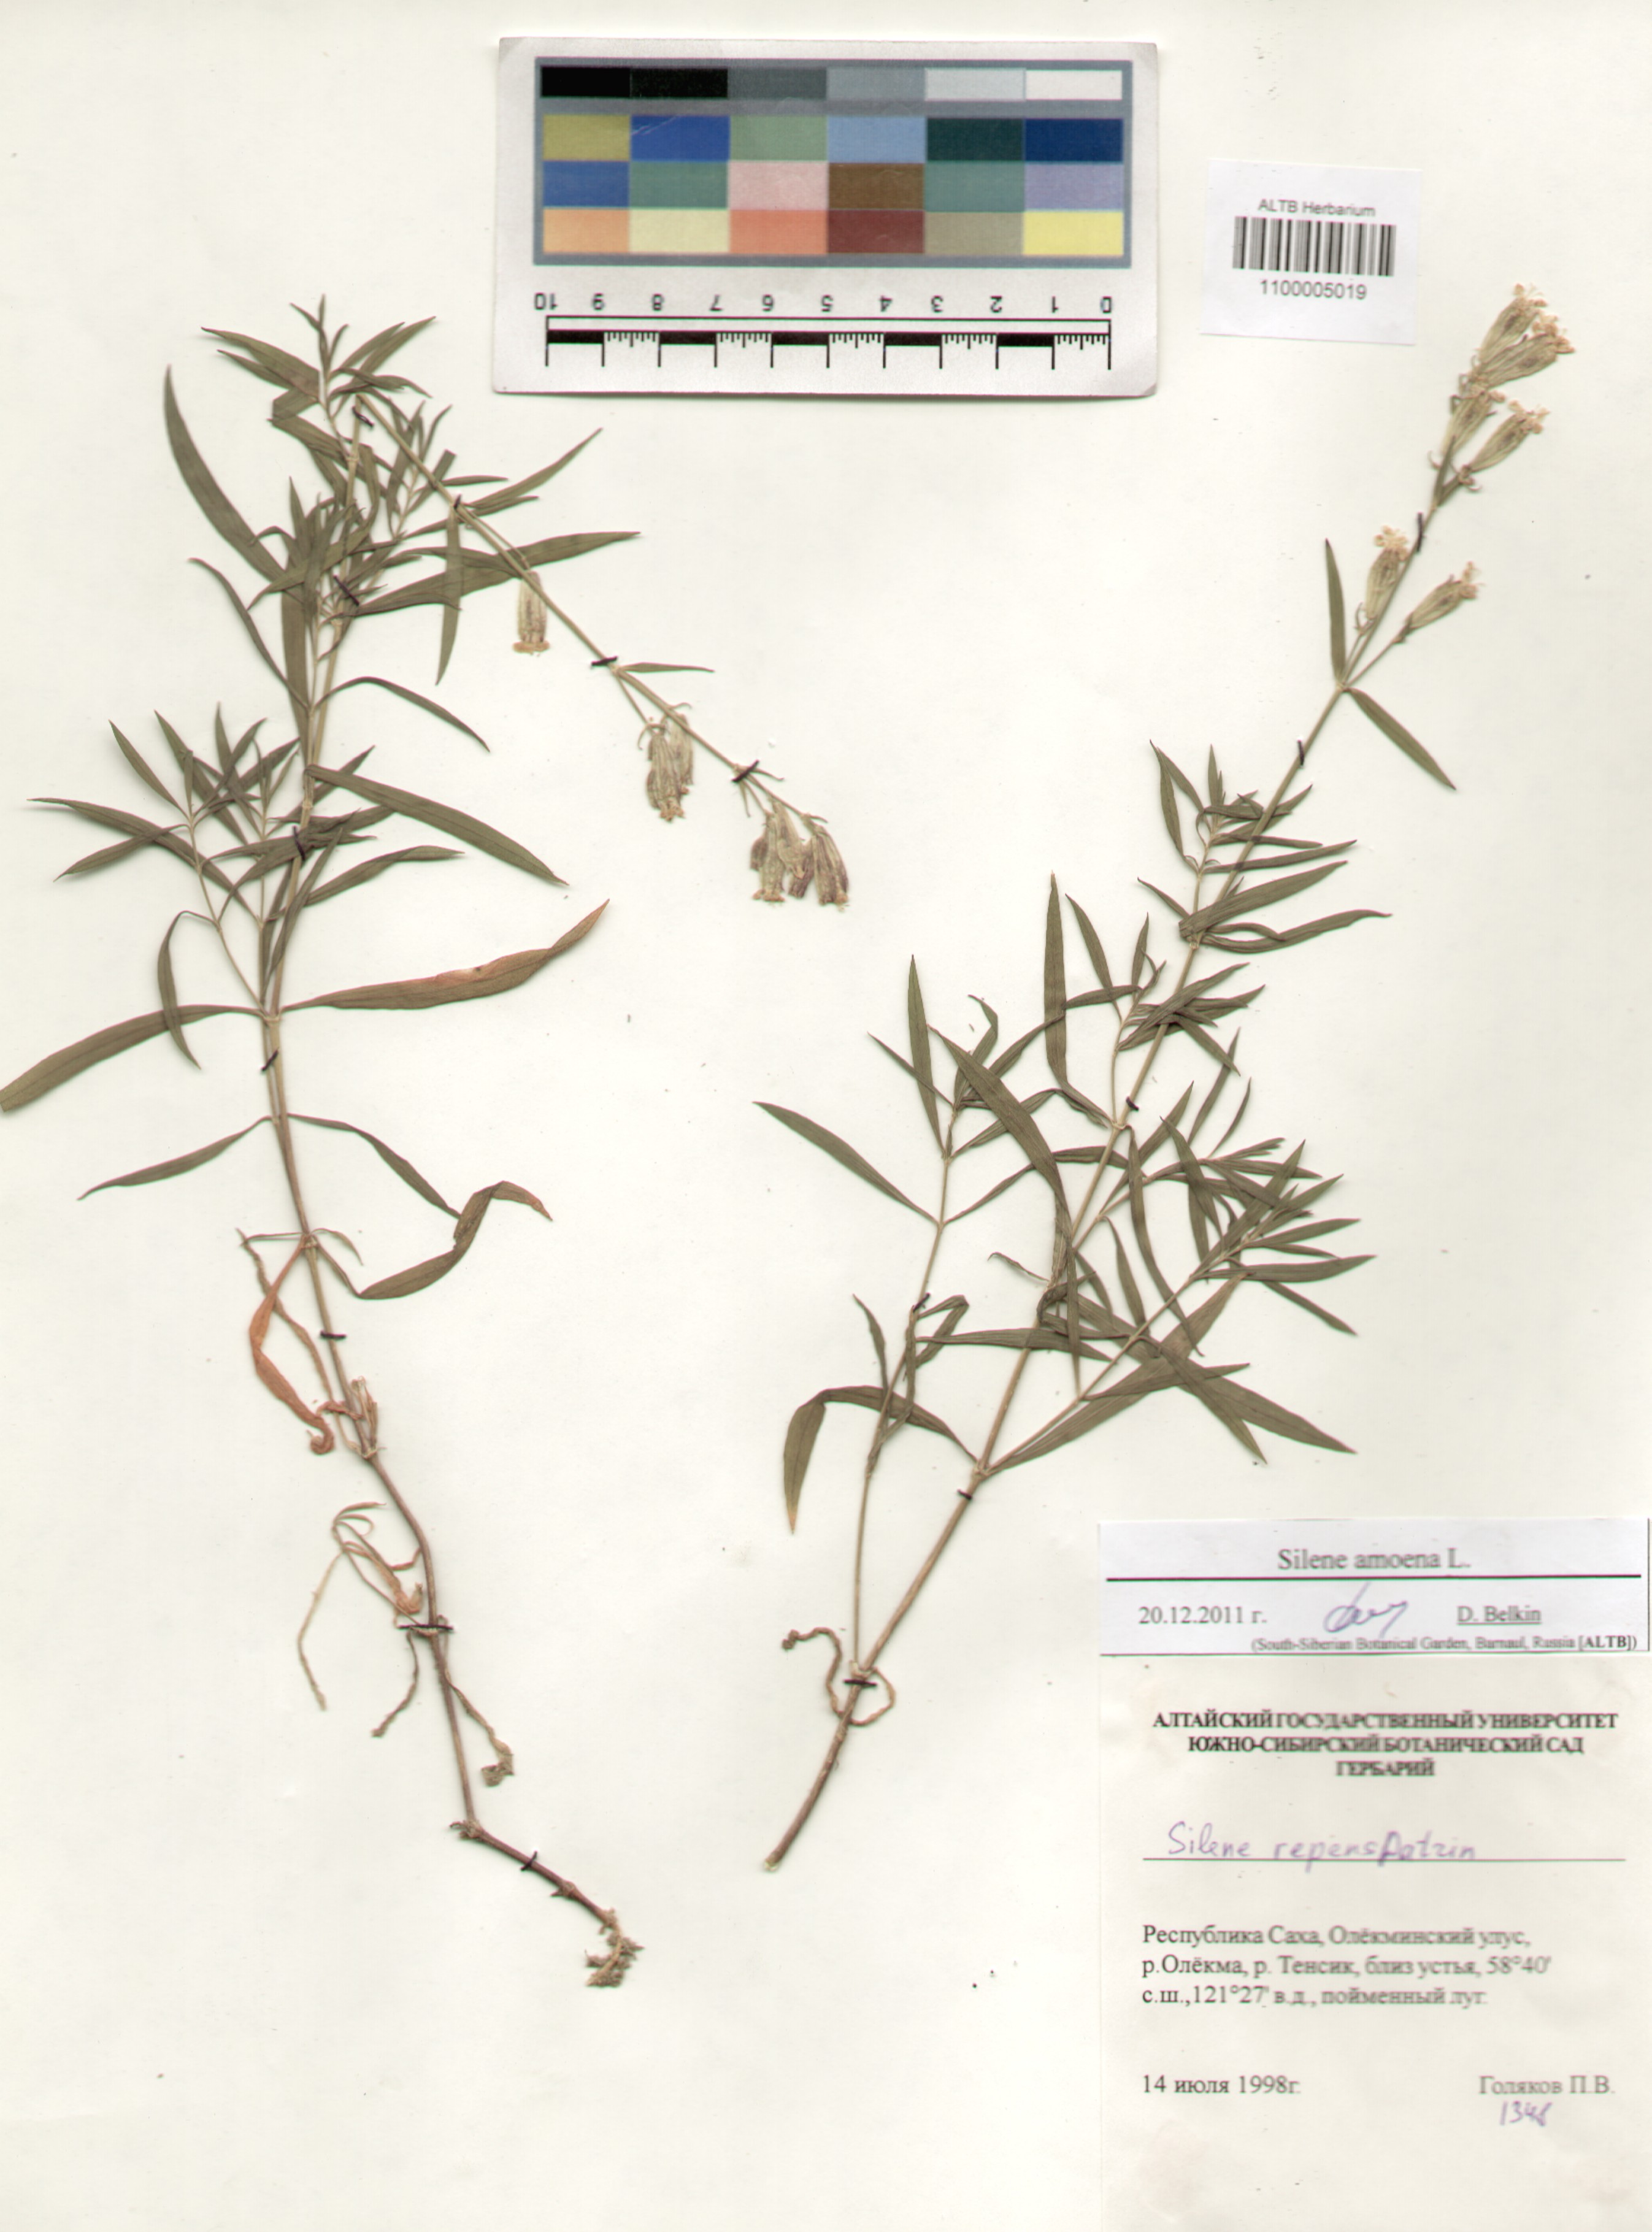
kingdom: Plantae
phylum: Tracheophyta
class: Magnoliopsida
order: Caryophyllales
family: Caryophyllaceae
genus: Silene
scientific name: Silene amoena
